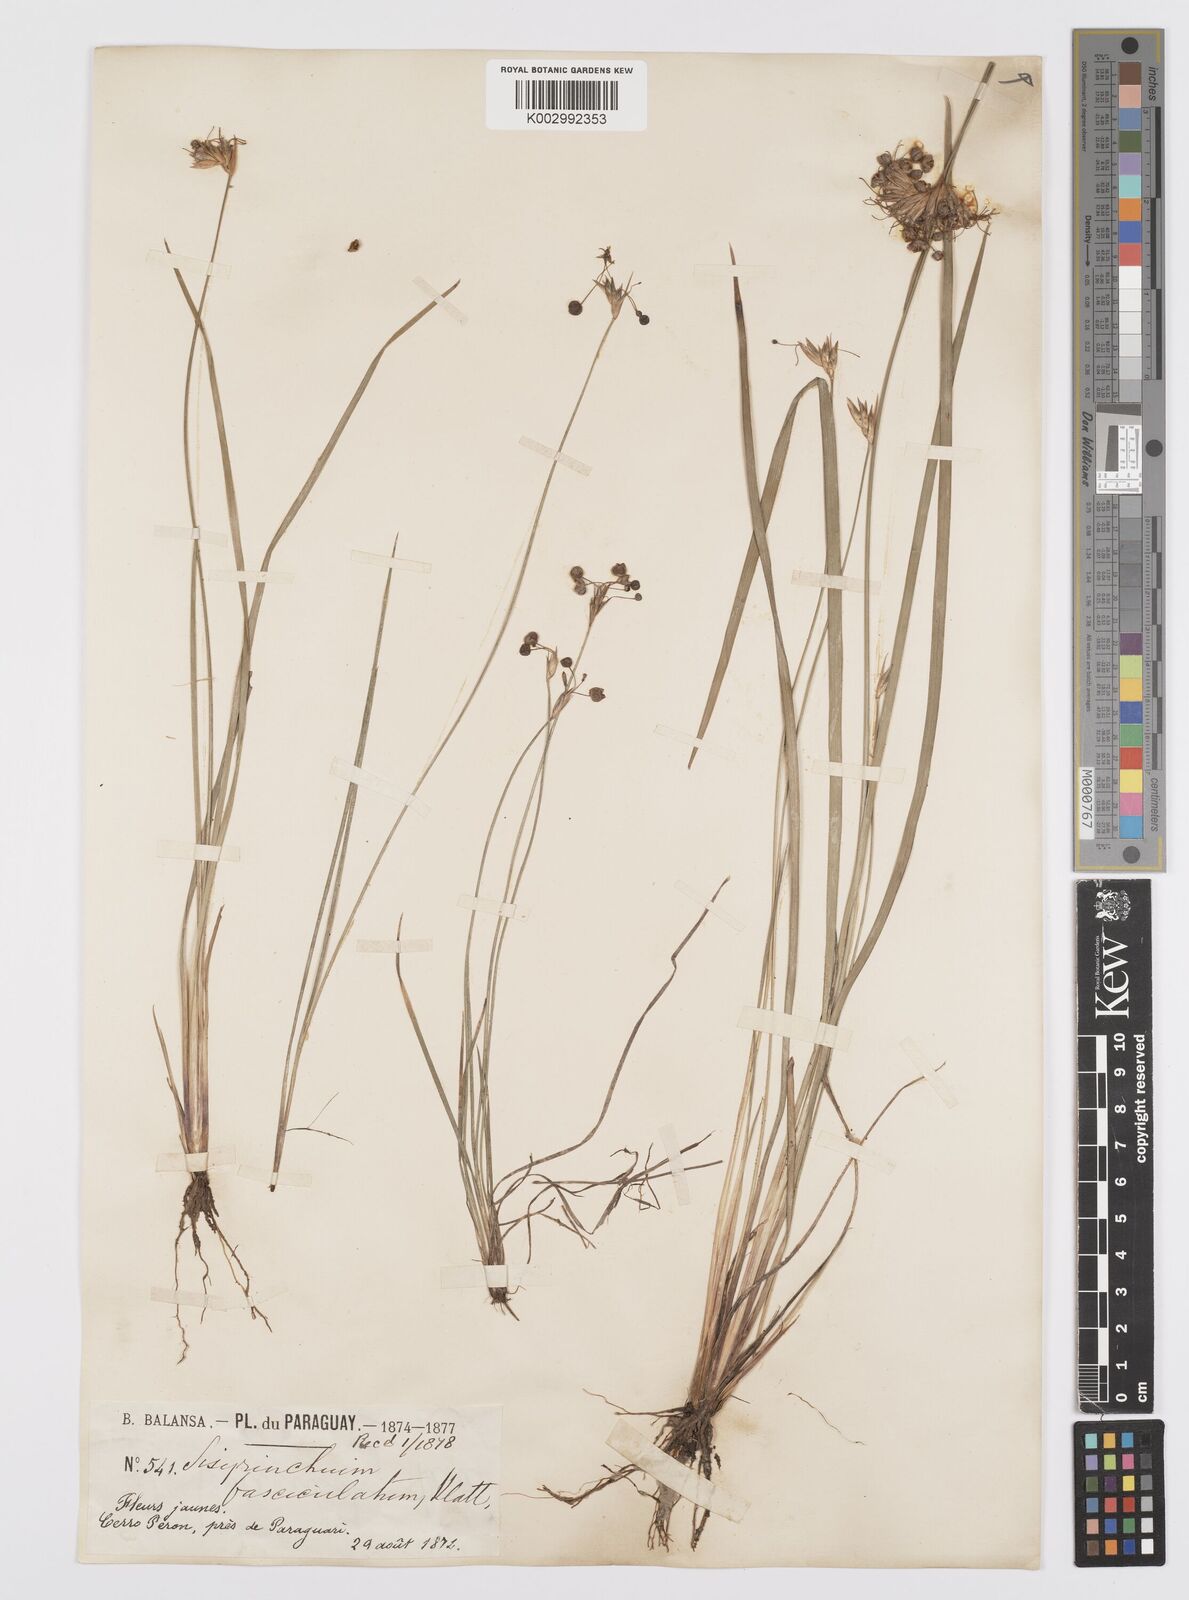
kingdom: Plantae
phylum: Tracheophyta
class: Liliopsida
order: Asparagales
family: Iridaceae
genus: Sisyrinchium
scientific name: Sisyrinchium fasciculatum
